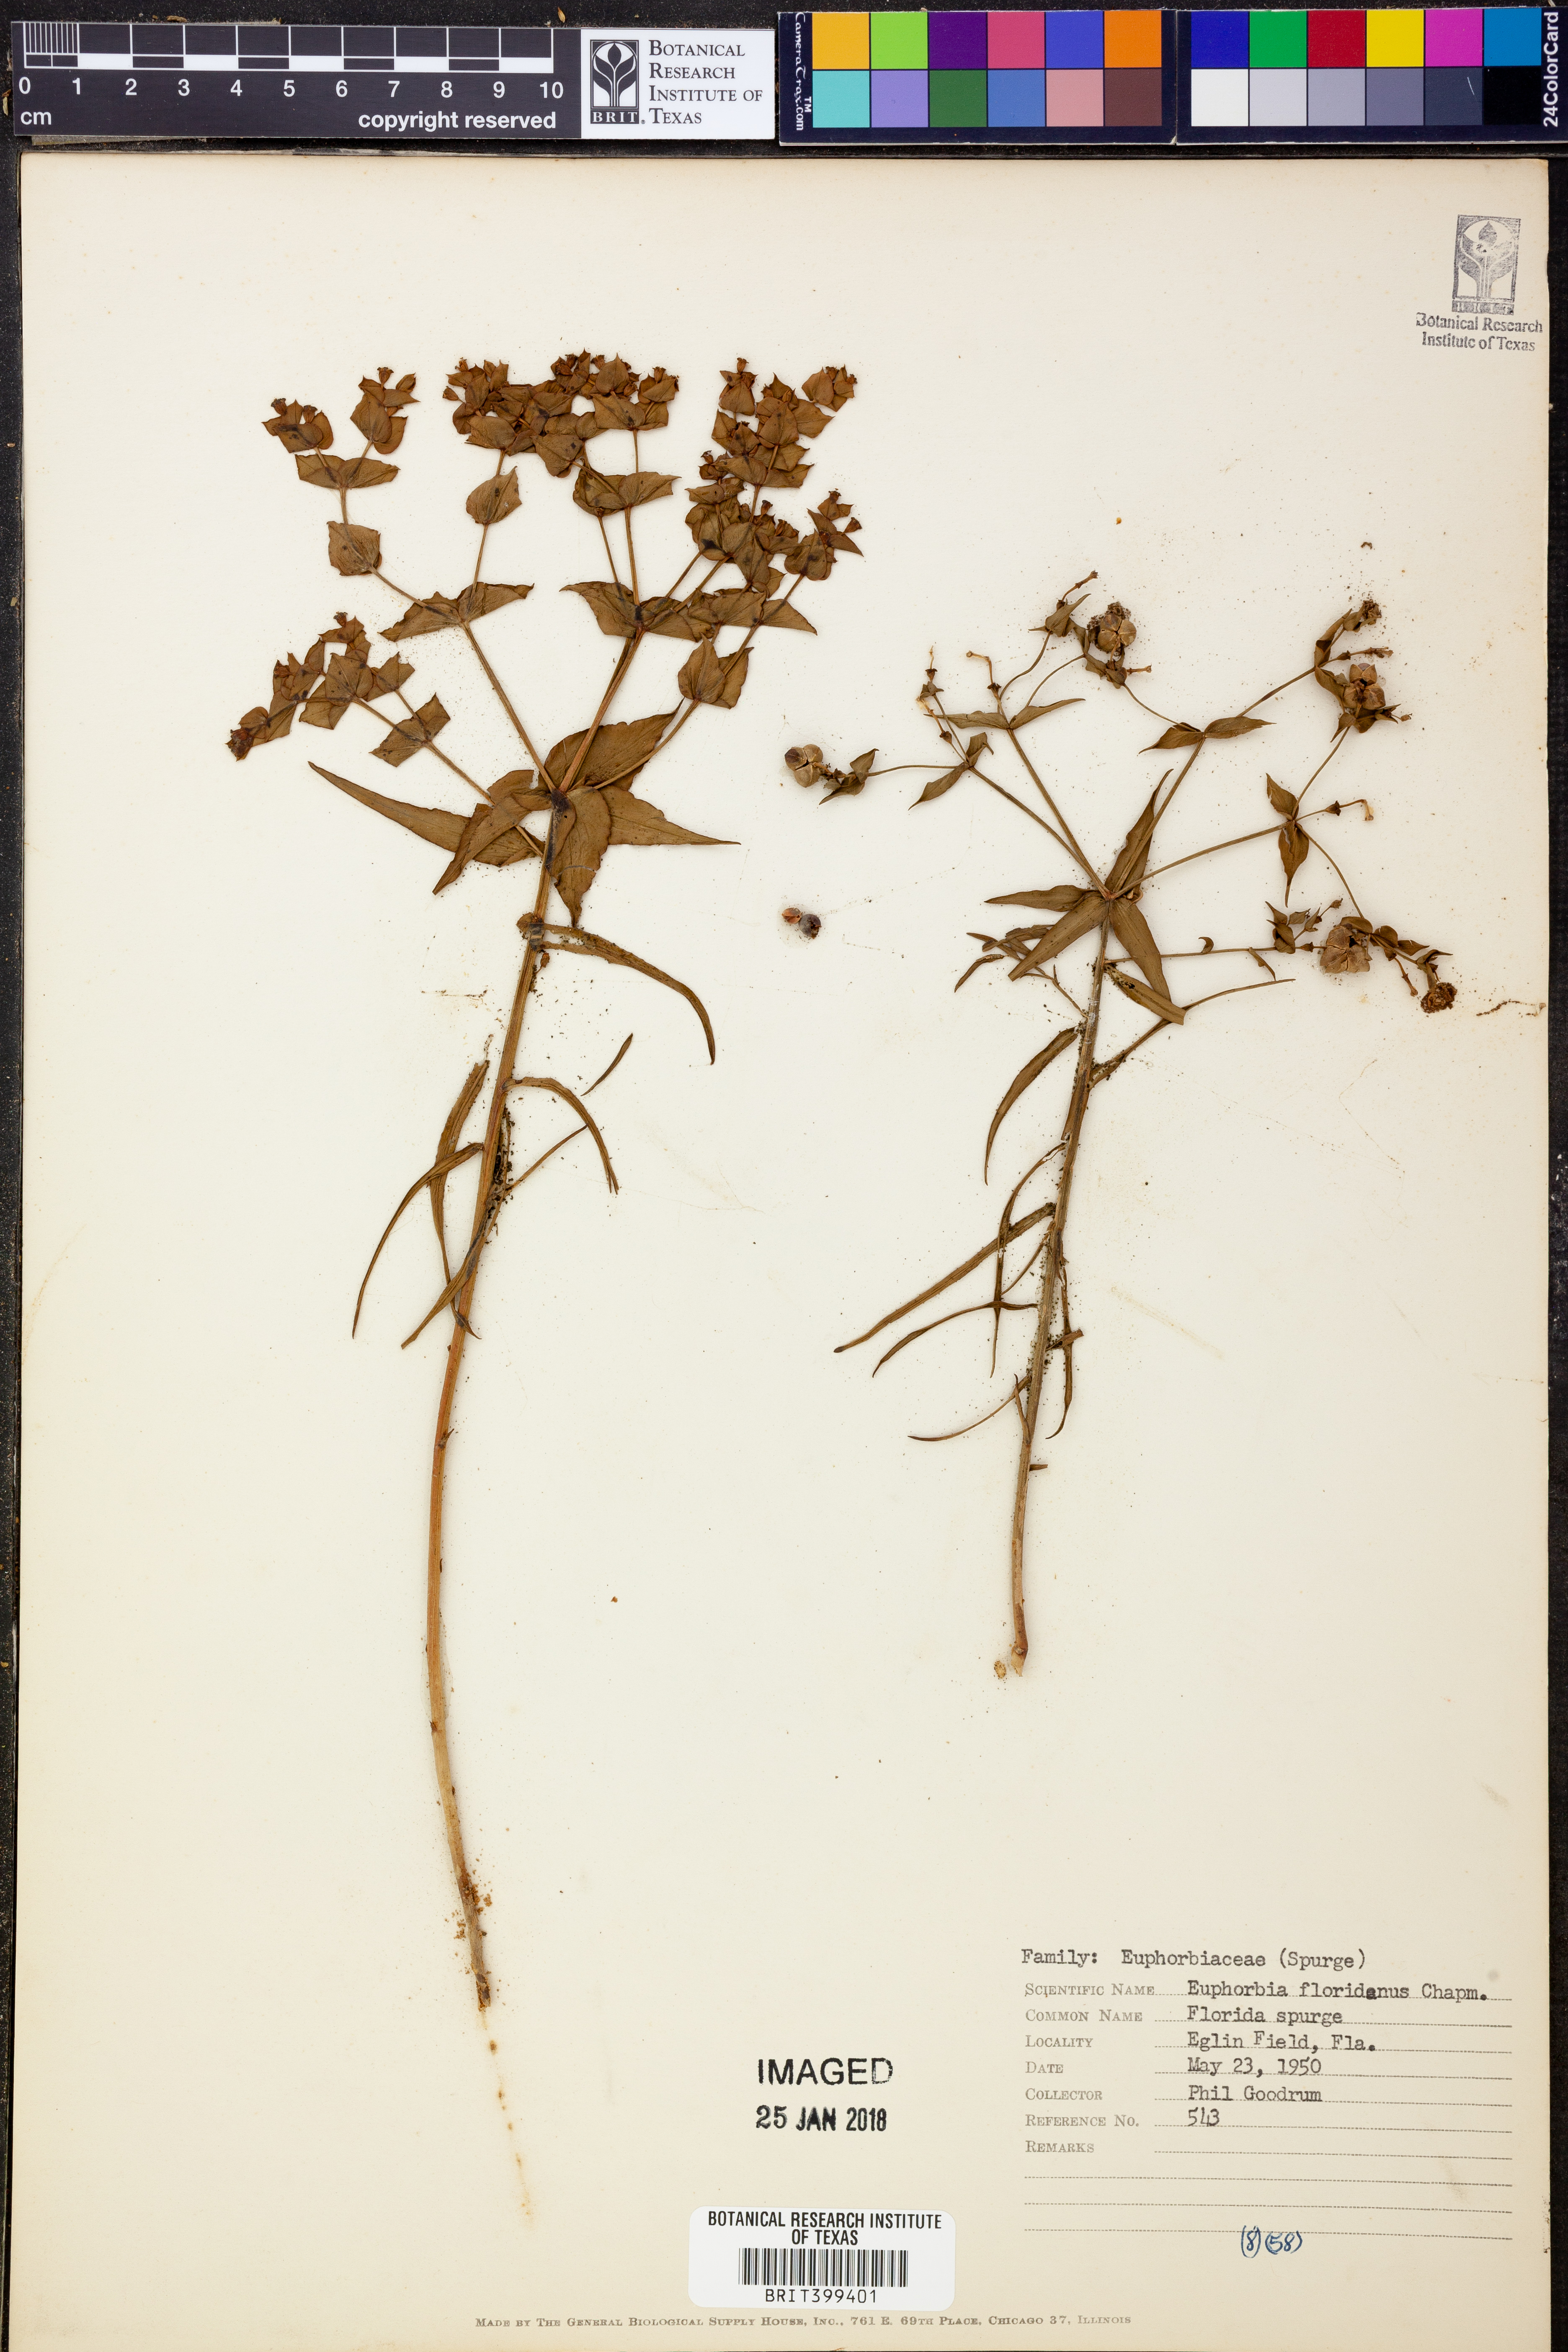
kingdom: Plantae
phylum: Tracheophyta
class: Magnoliopsida
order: Malpighiales
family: Euphorbiaceae
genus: Euphorbia
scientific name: Euphorbia floridana
